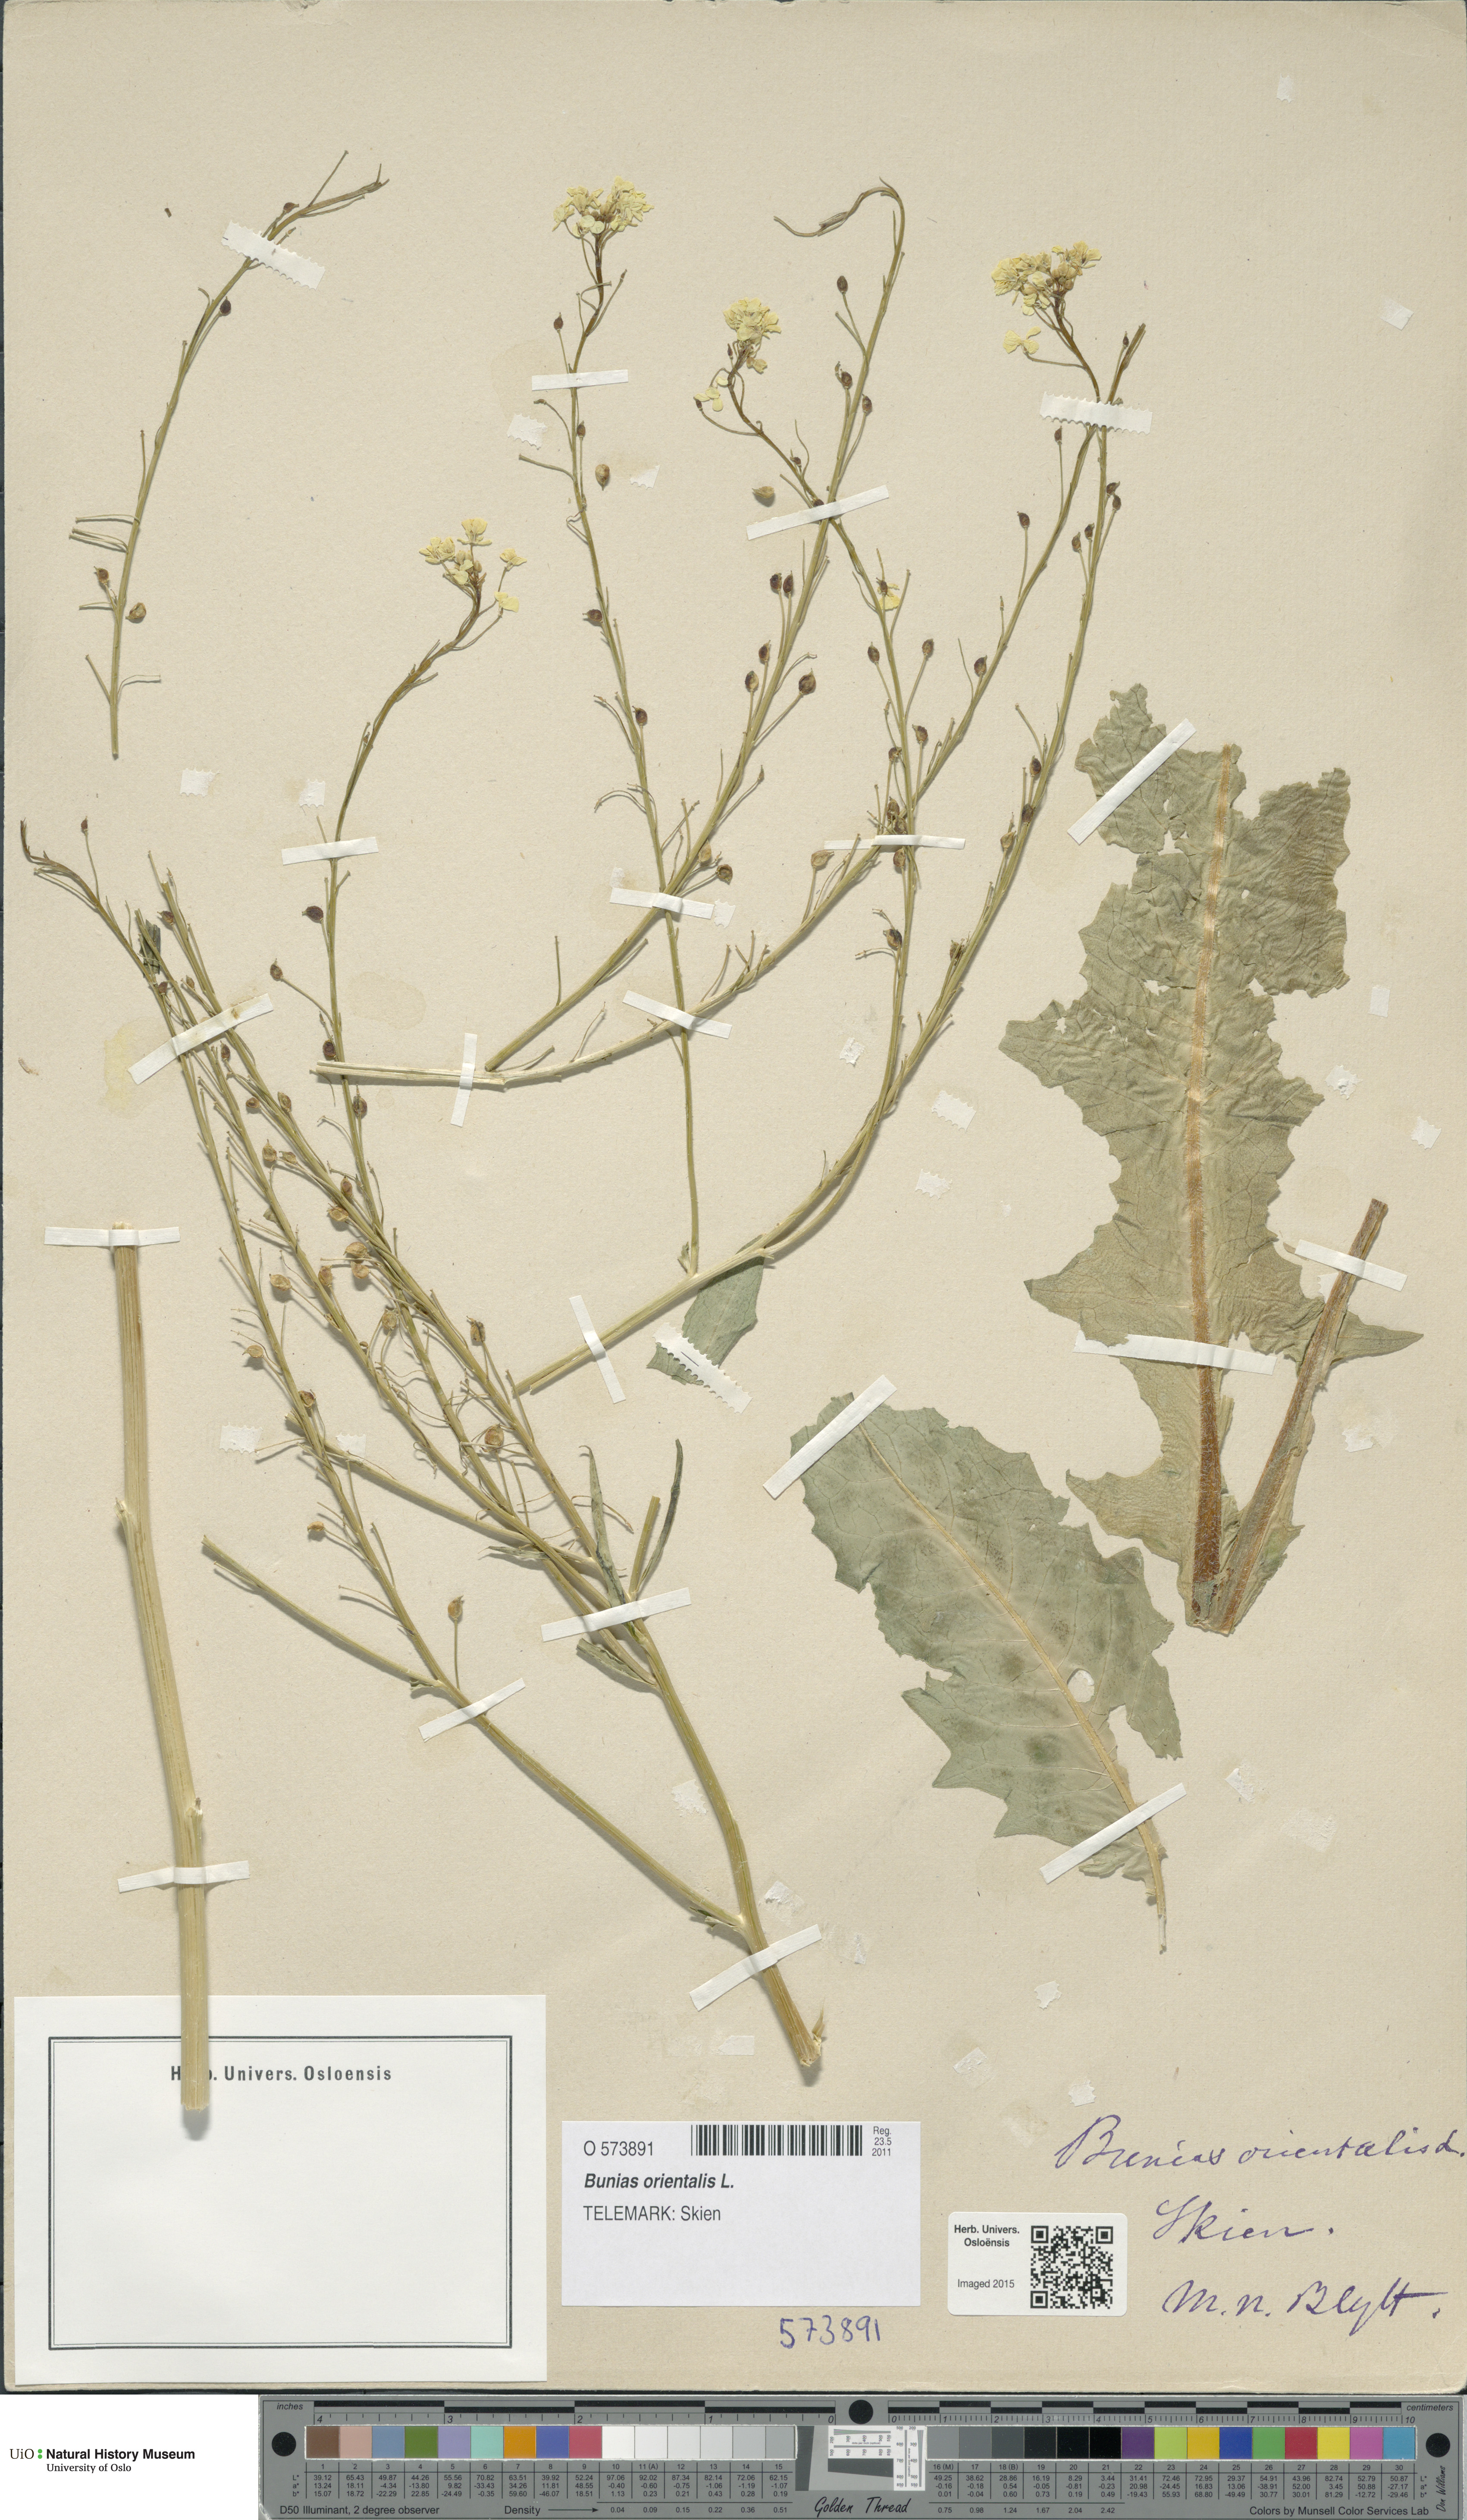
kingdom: Plantae
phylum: Tracheophyta
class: Magnoliopsida
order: Brassicales
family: Brassicaceae
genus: Bunias
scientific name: Bunias orientalis
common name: Warty-cabbage
